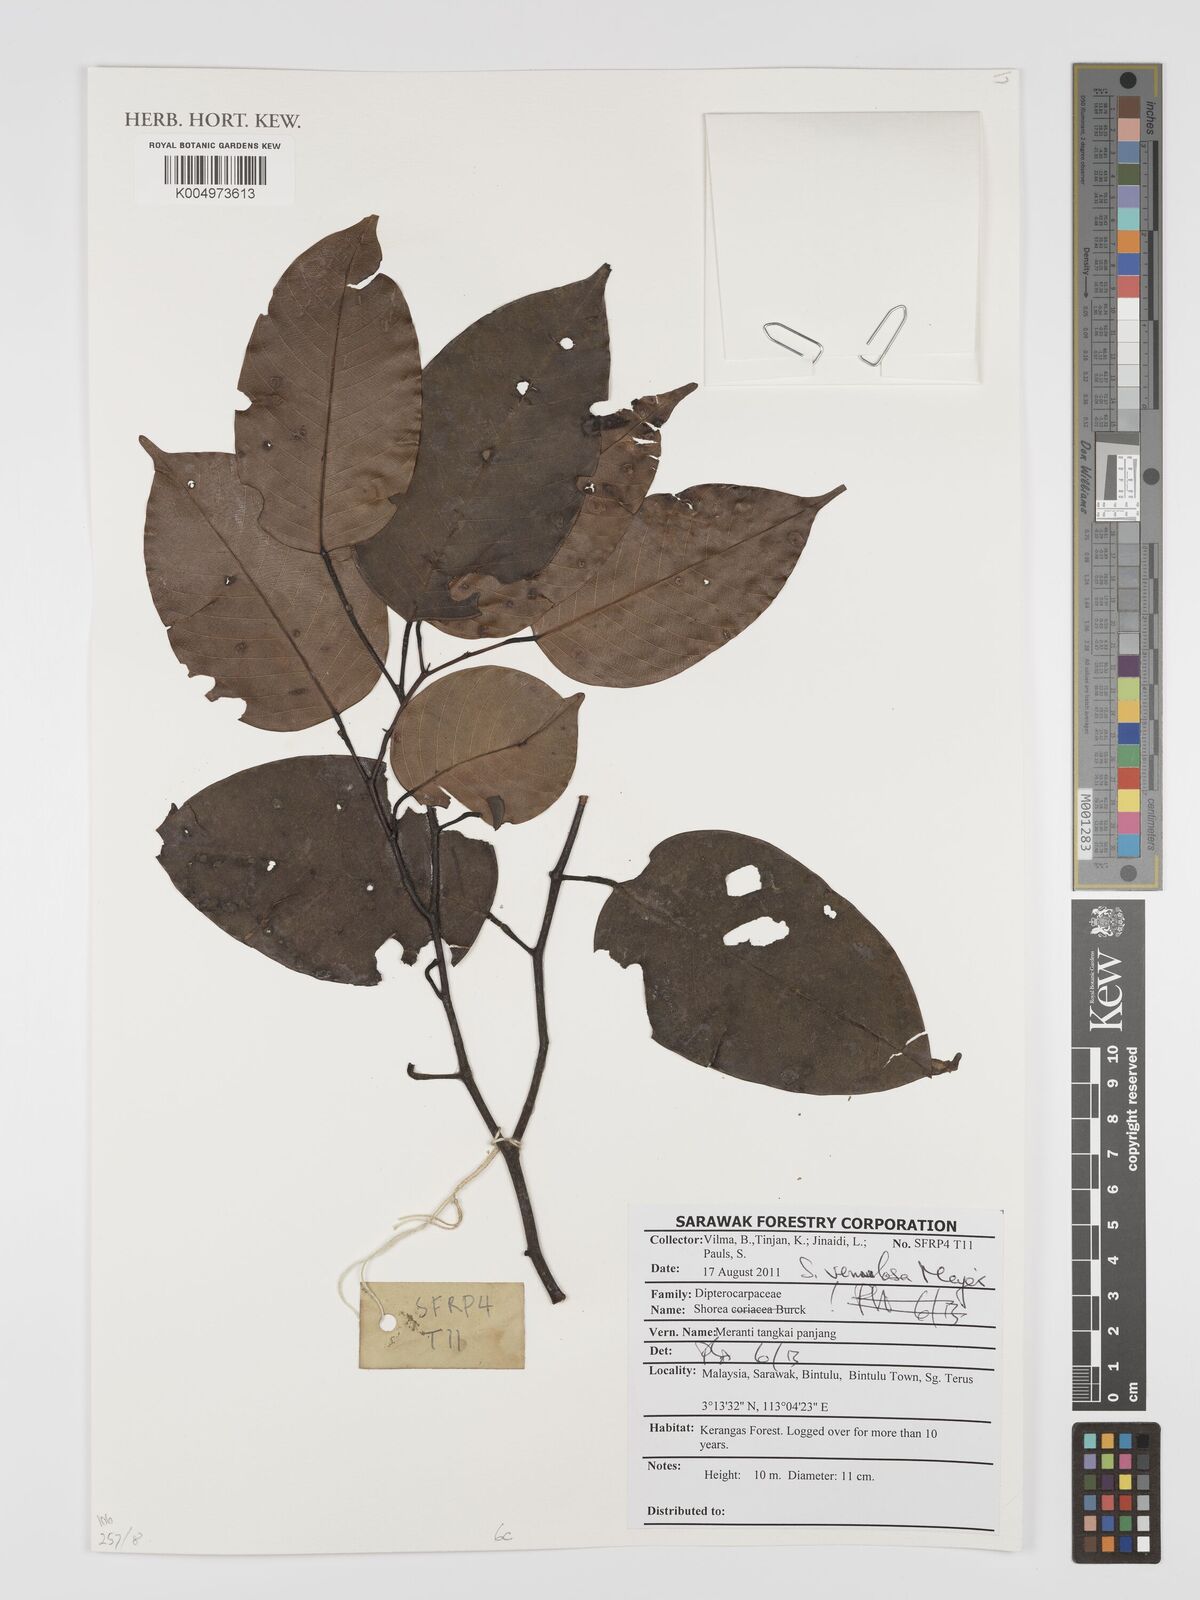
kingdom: Plantae
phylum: Tracheophyta
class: Magnoliopsida
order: Malvales
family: Dipterocarpaceae
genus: Shorea
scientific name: Shorea venulosa
